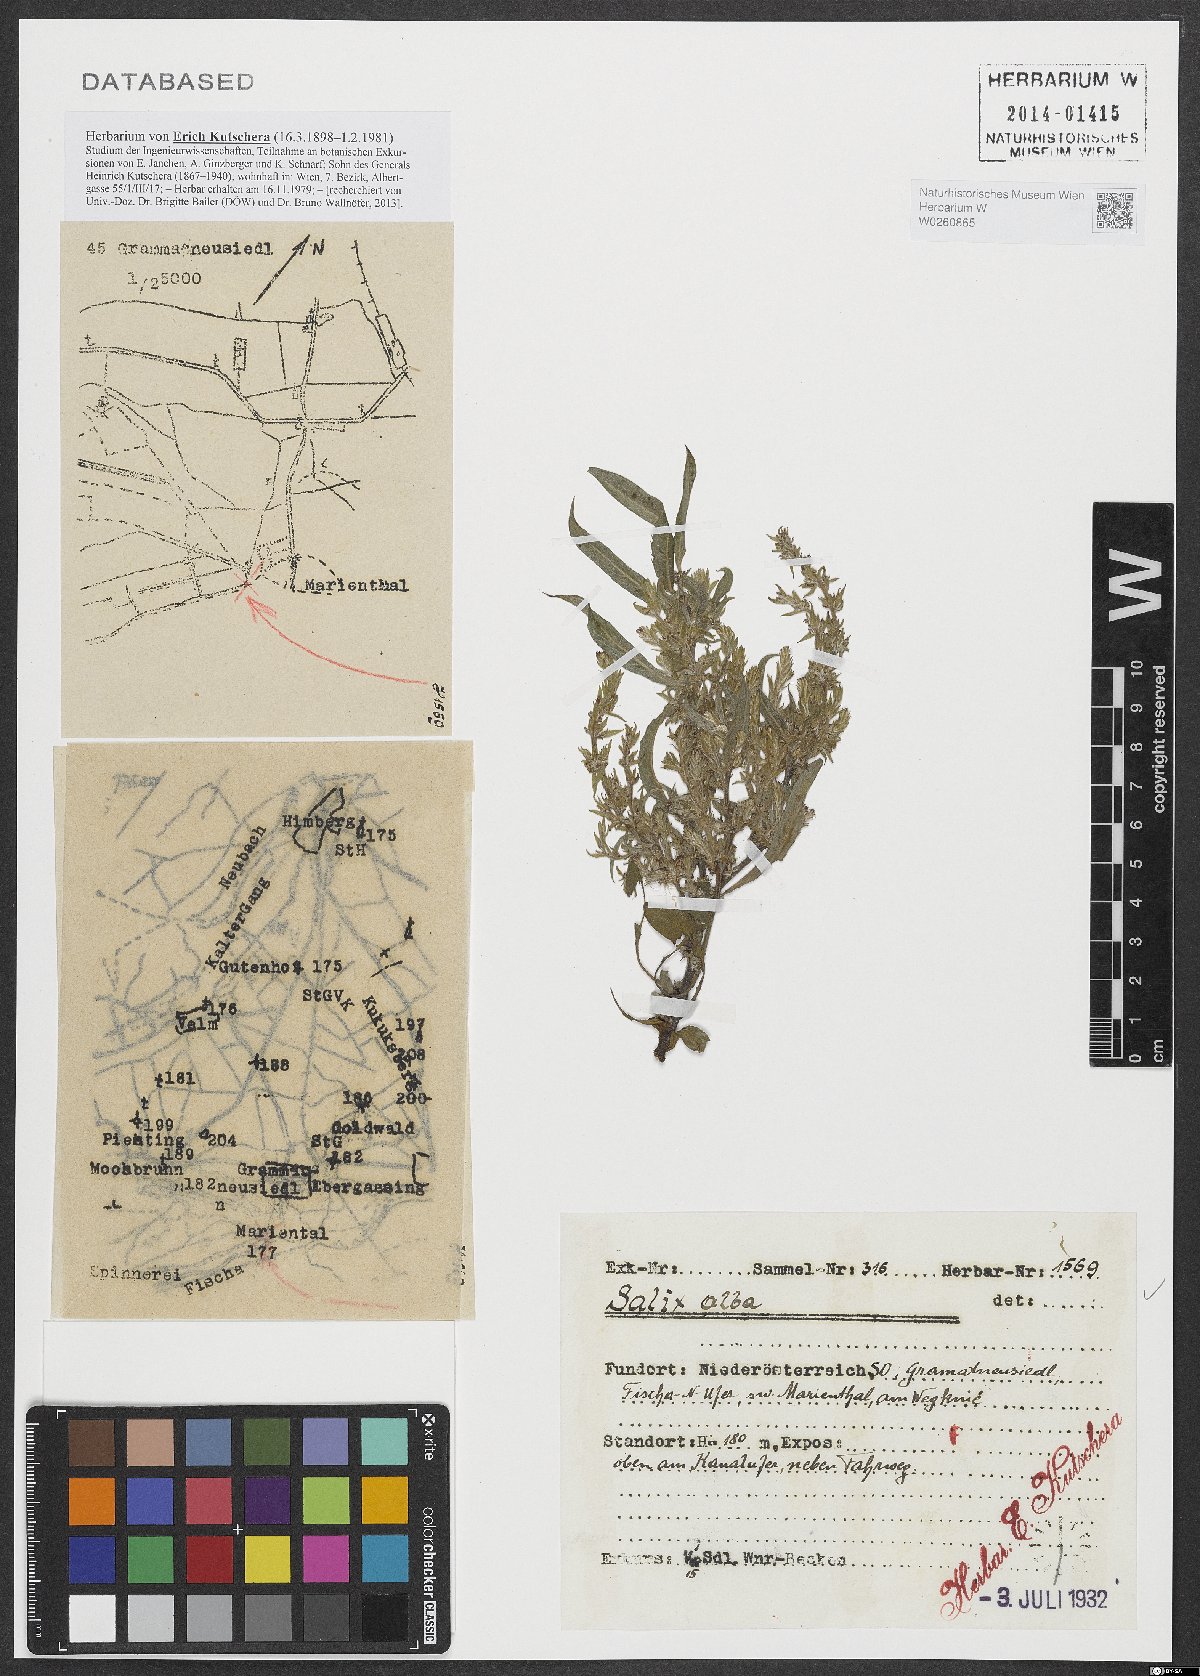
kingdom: Plantae
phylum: Tracheophyta
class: Magnoliopsida
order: Malpighiales
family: Salicaceae
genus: Salix
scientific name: Salix alba
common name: White willow
